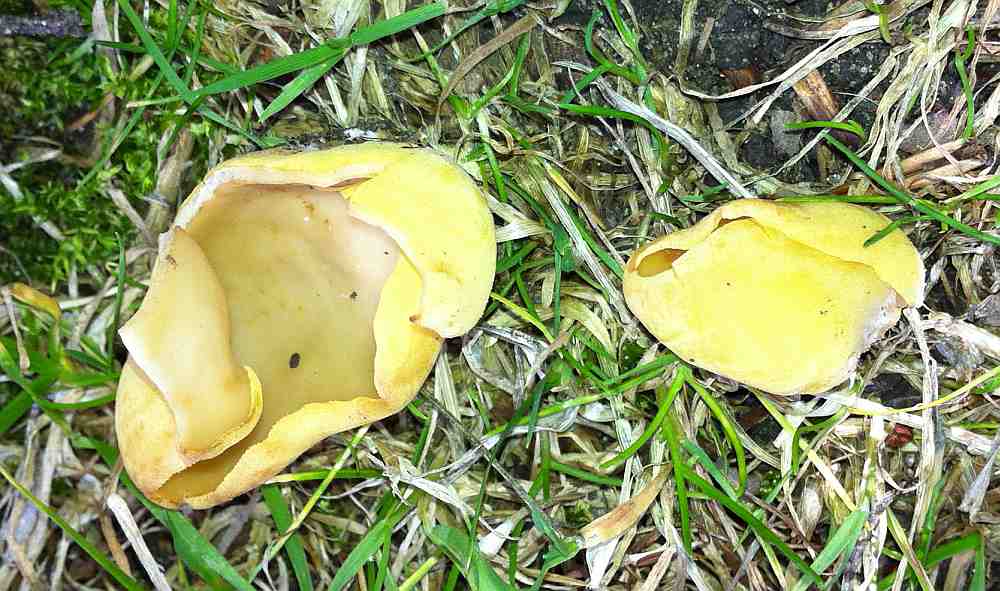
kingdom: Fungi
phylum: Ascomycota
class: Pezizomycetes
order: Pezizales
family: Otideaceae
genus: Otidea
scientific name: Otidea cantharella
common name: citrongul ørebæger
